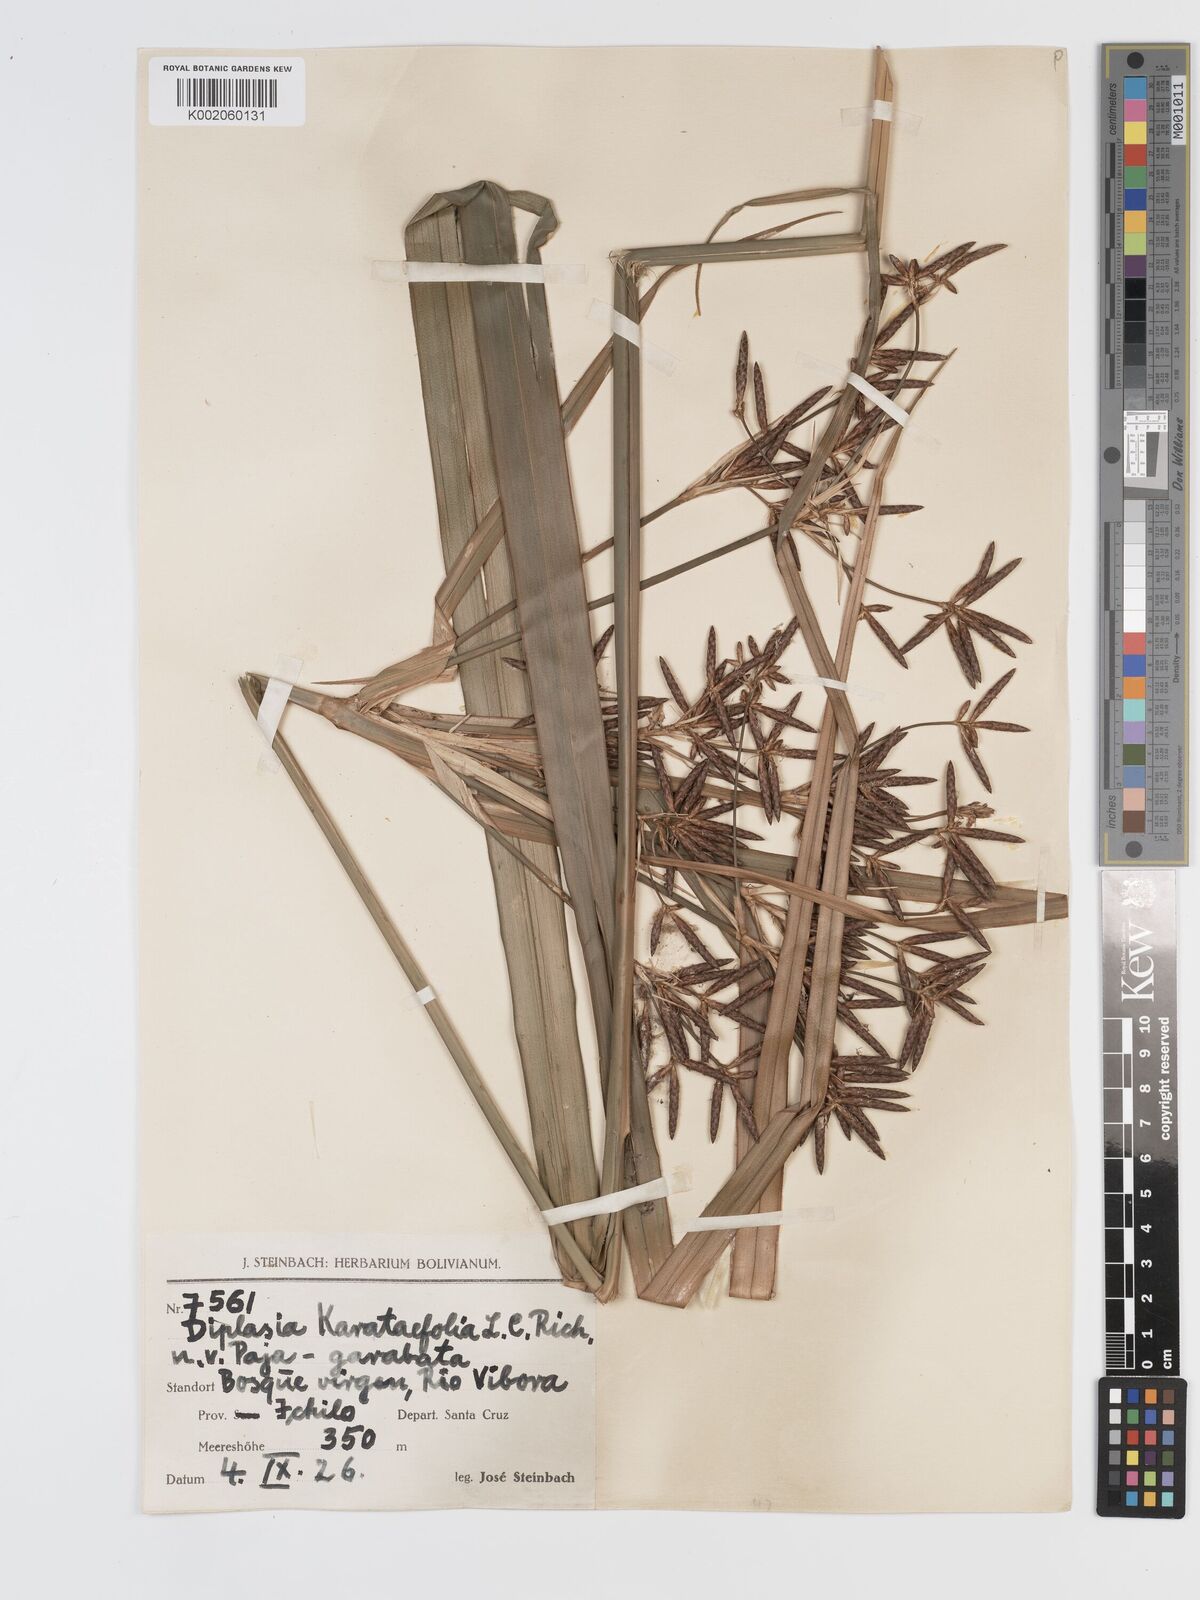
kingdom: Plantae
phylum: Tracheophyta
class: Liliopsida
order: Poales
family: Cyperaceae
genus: Diplasia
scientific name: Diplasia karatifolia
